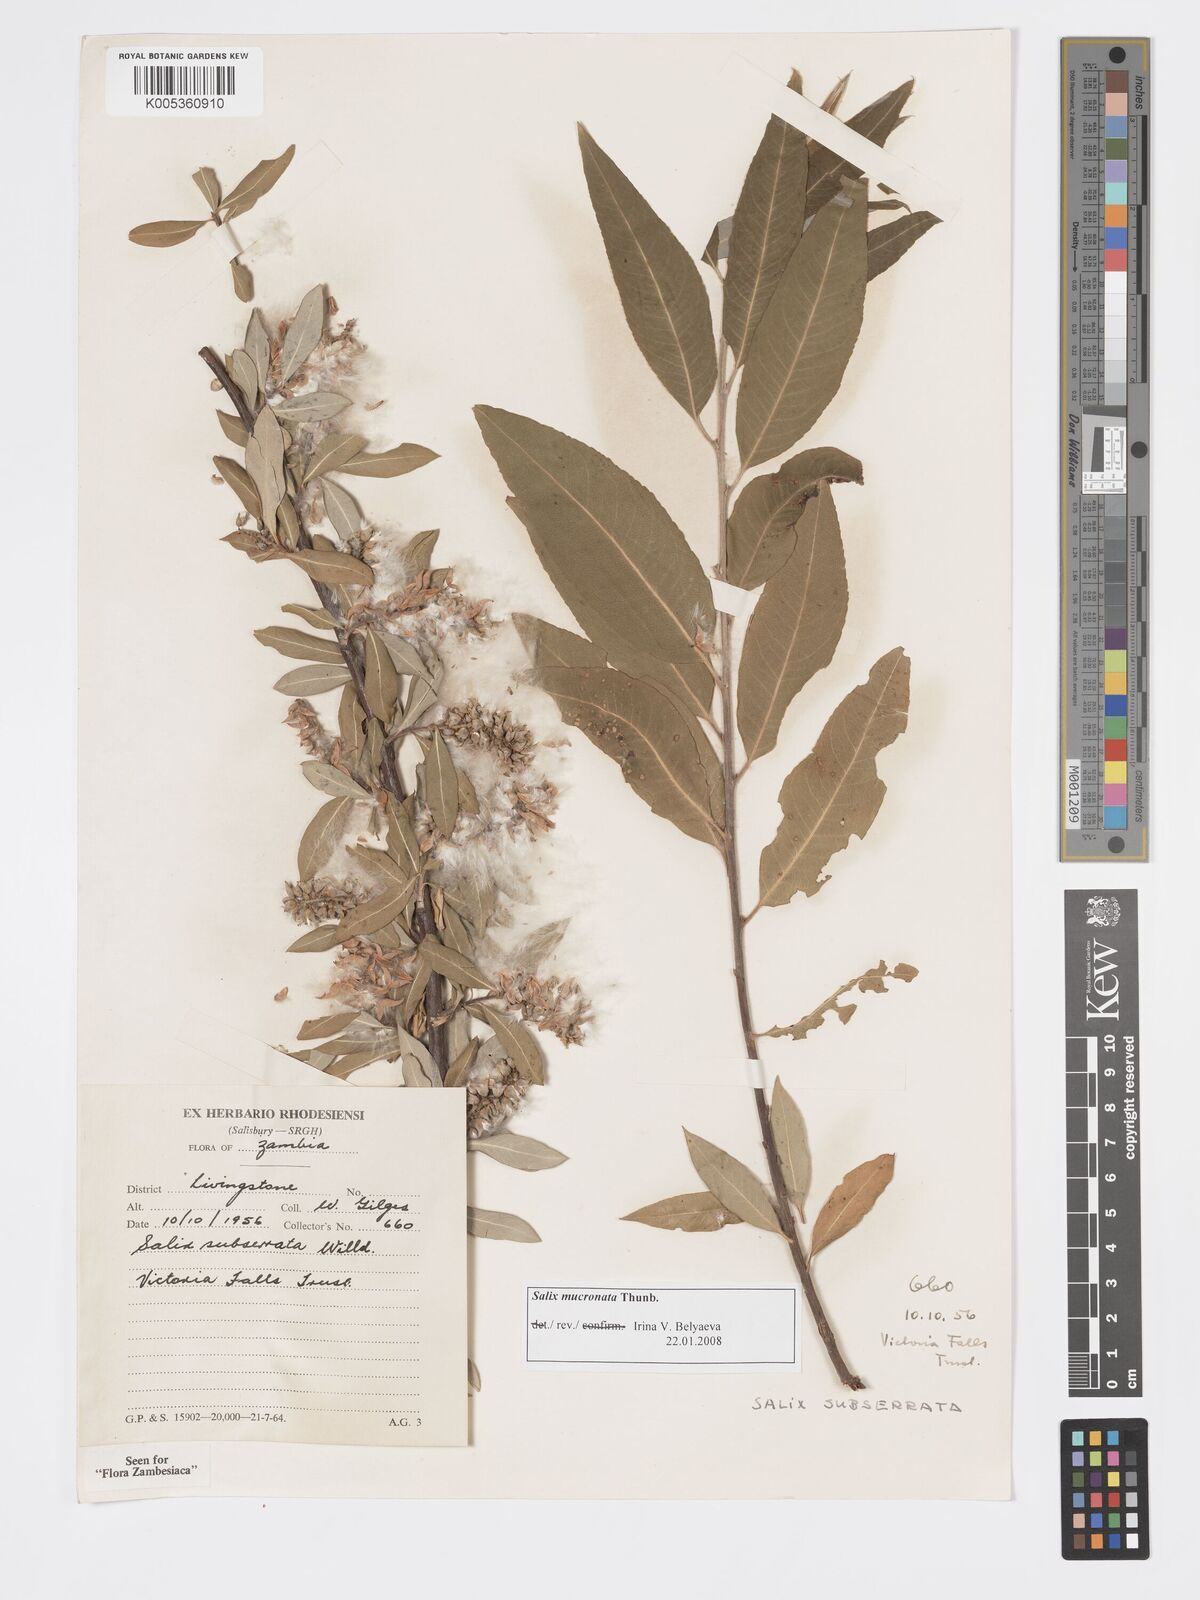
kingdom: Plantae
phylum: Tracheophyta
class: Magnoliopsida
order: Malpighiales
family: Salicaceae
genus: Salix
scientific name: Salix mucronata
